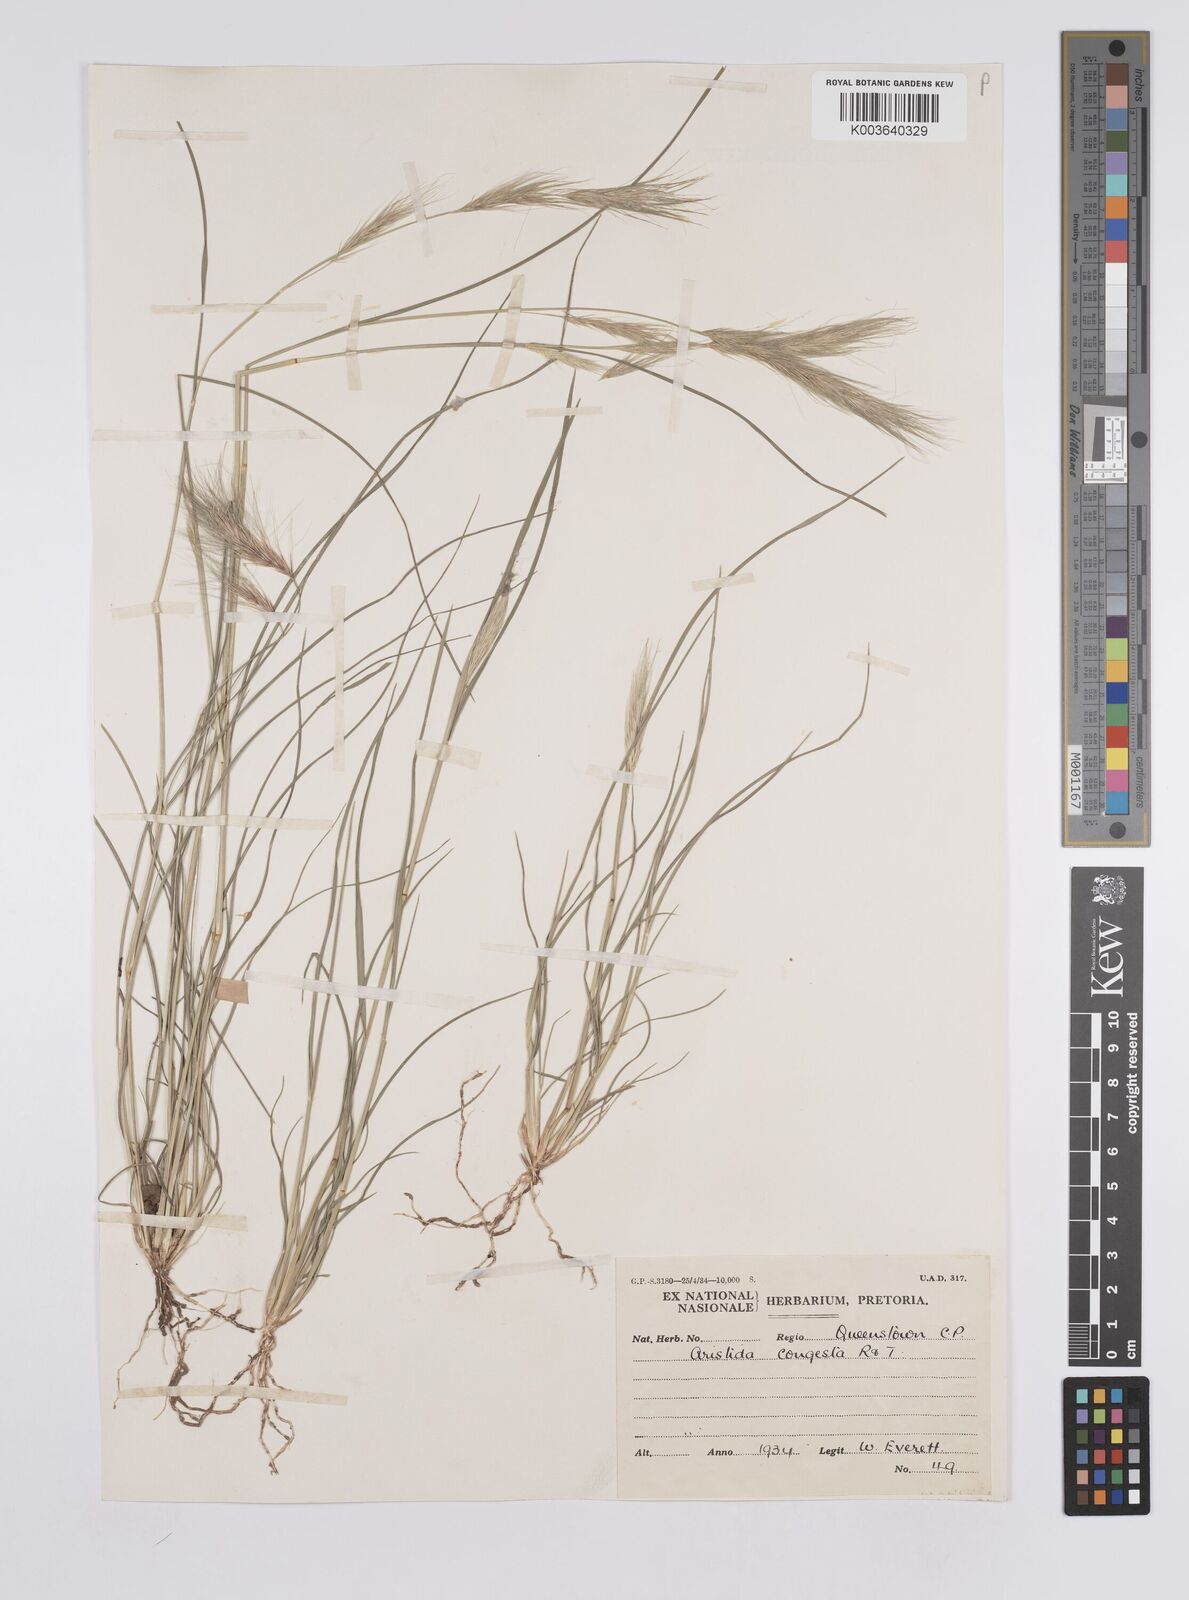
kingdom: Plantae
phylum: Tracheophyta
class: Liliopsida
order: Poales
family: Poaceae
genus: Aristida
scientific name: Aristida congesta
